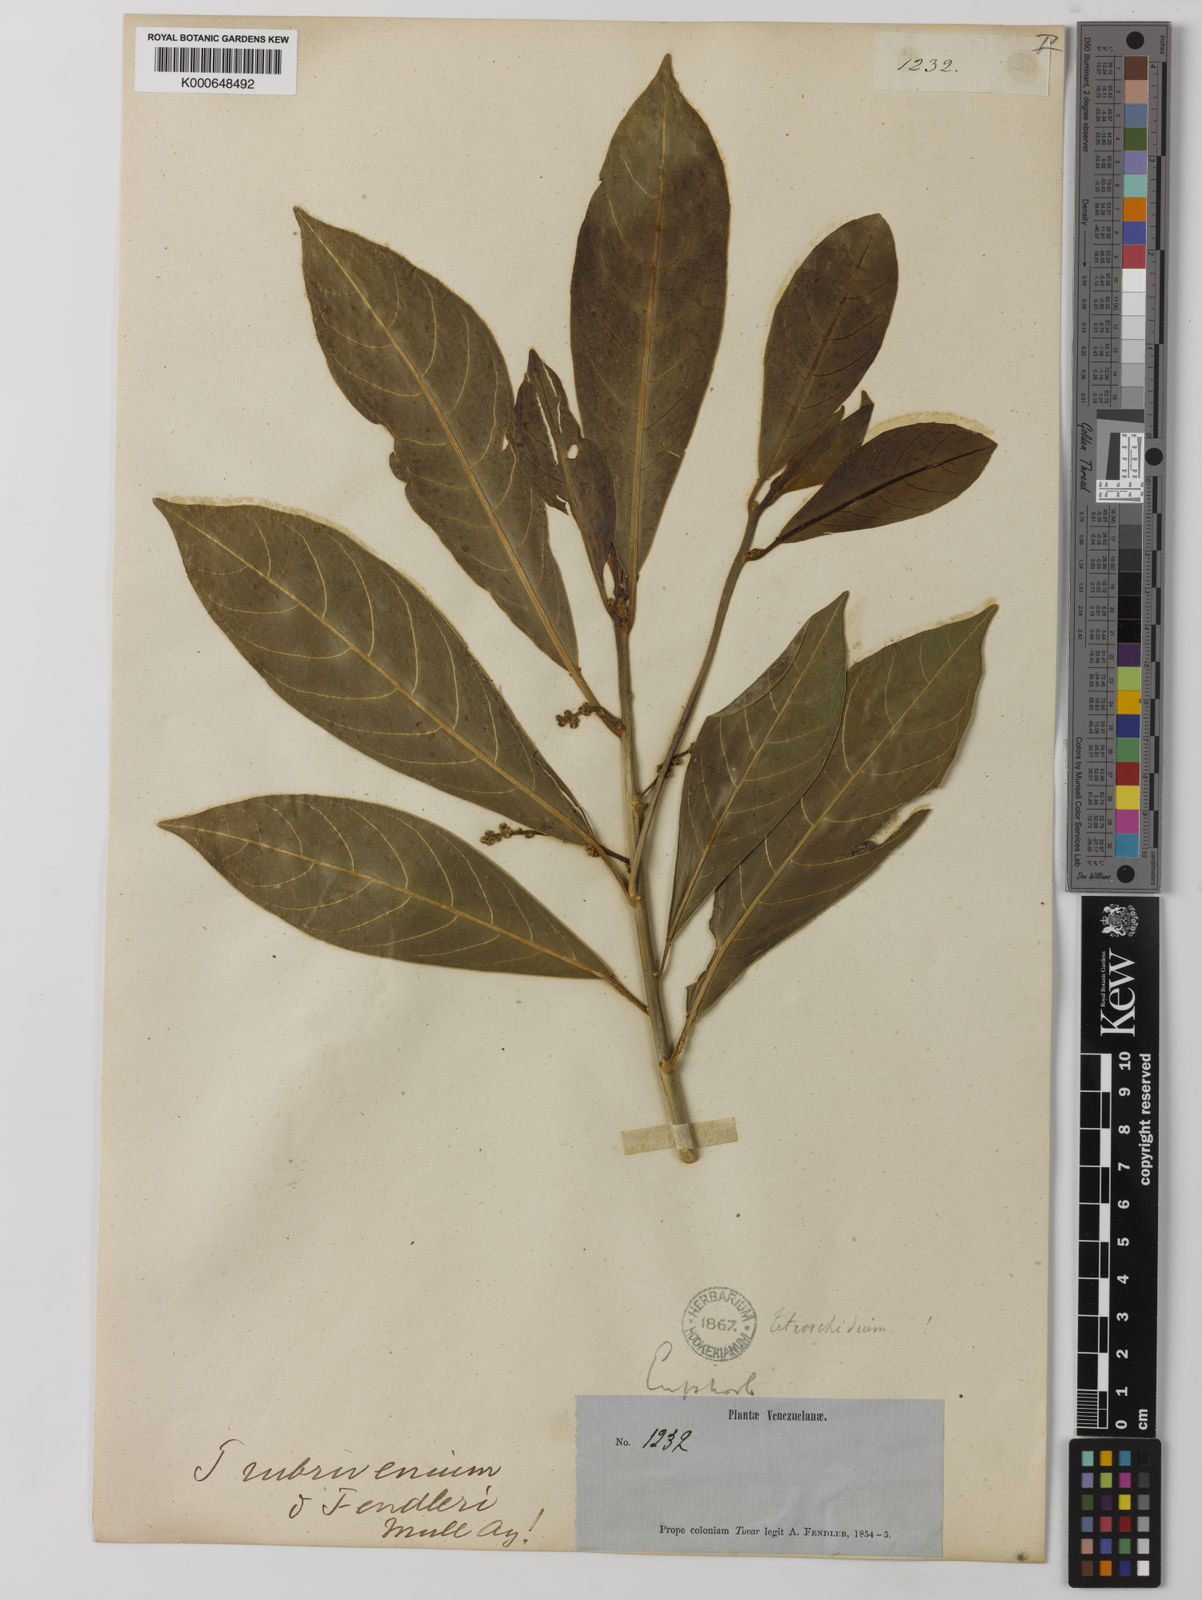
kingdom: Plantae
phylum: Tracheophyta
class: Magnoliopsida
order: Malpighiales
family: Euphorbiaceae
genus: Tetrorchidium
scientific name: Tetrorchidium
